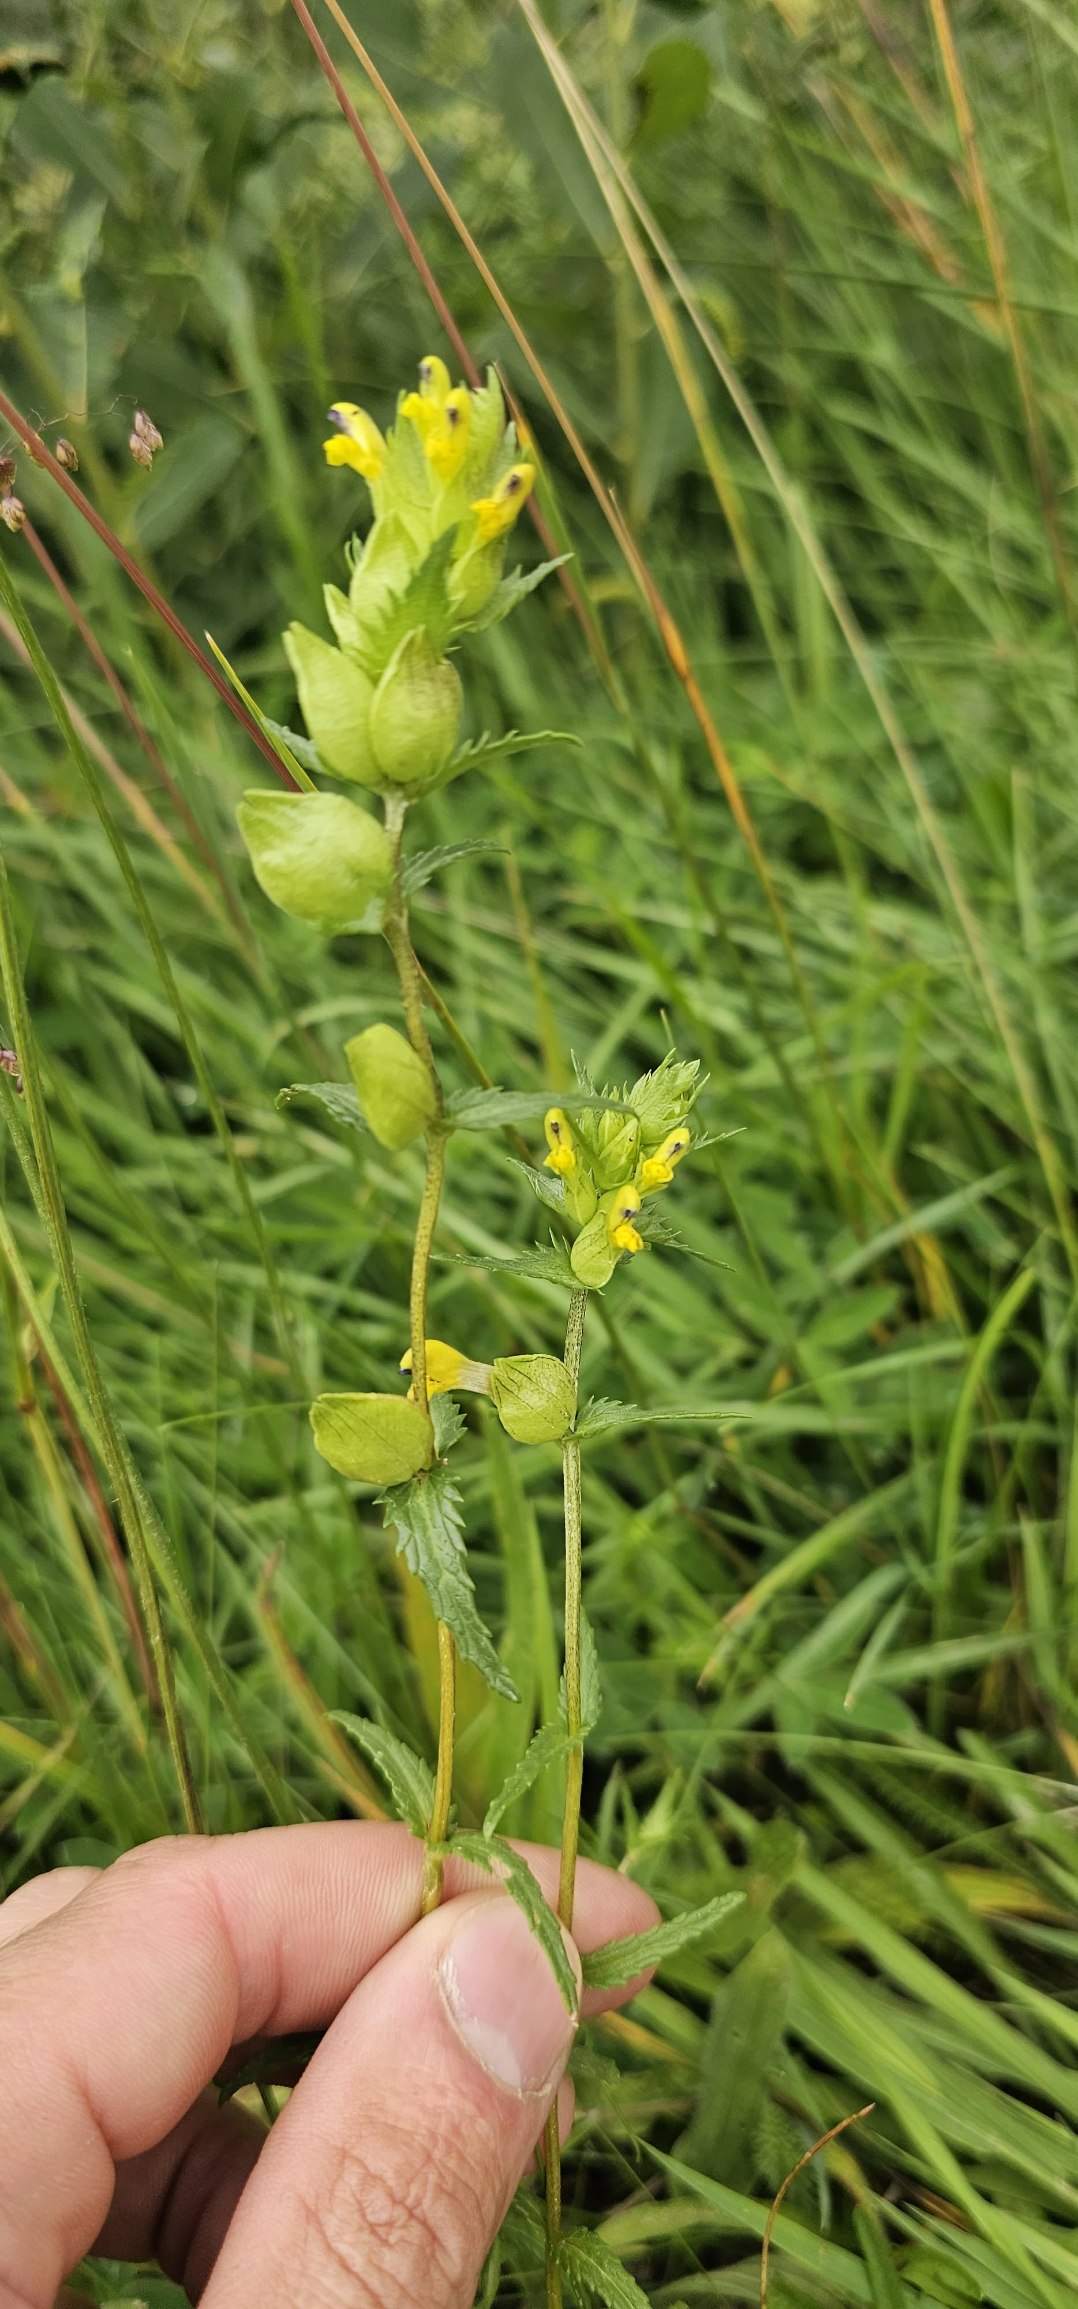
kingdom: Plantae
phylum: Tracheophyta
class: Magnoliopsida
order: Lamiales
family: Orobanchaceae
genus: Rhinanthus
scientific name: Rhinanthus minor
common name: Liden skjaller
